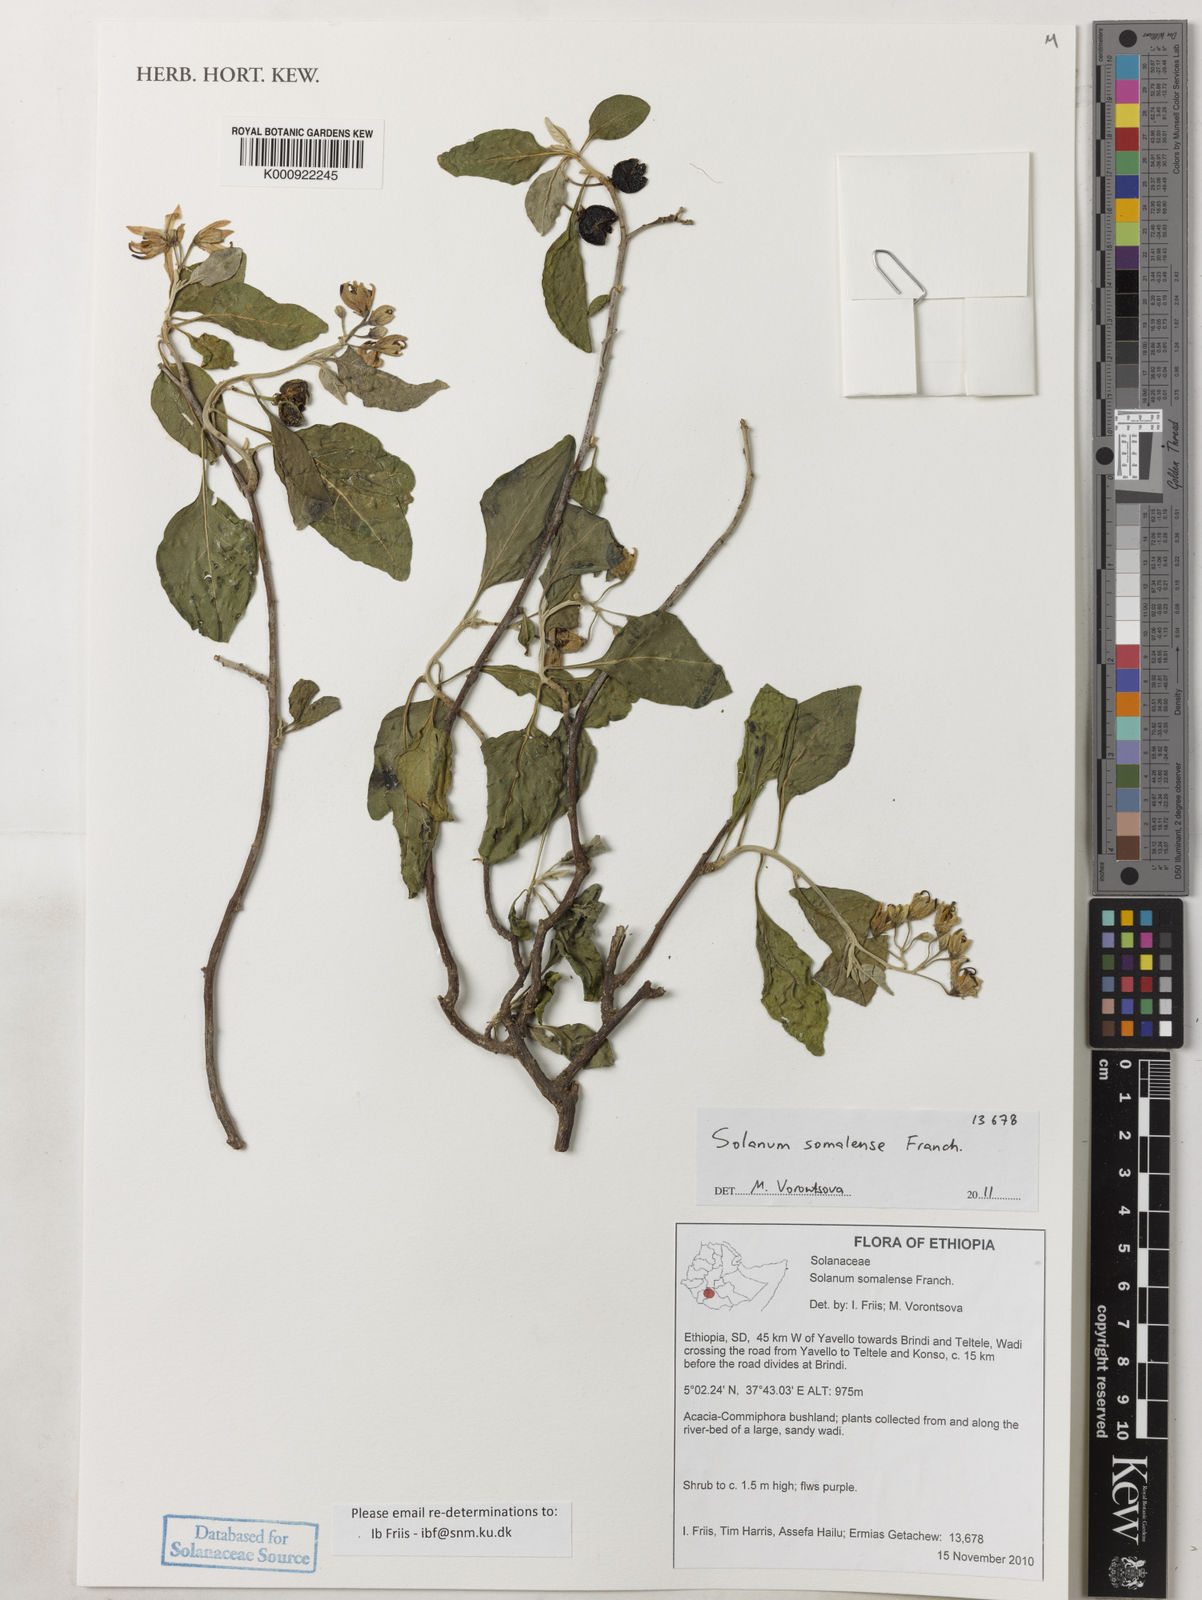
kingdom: Plantae
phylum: Tracheophyta
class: Magnoliopsida
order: Solanales
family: Solanaceae
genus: Solanum
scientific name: Solanum somalense
